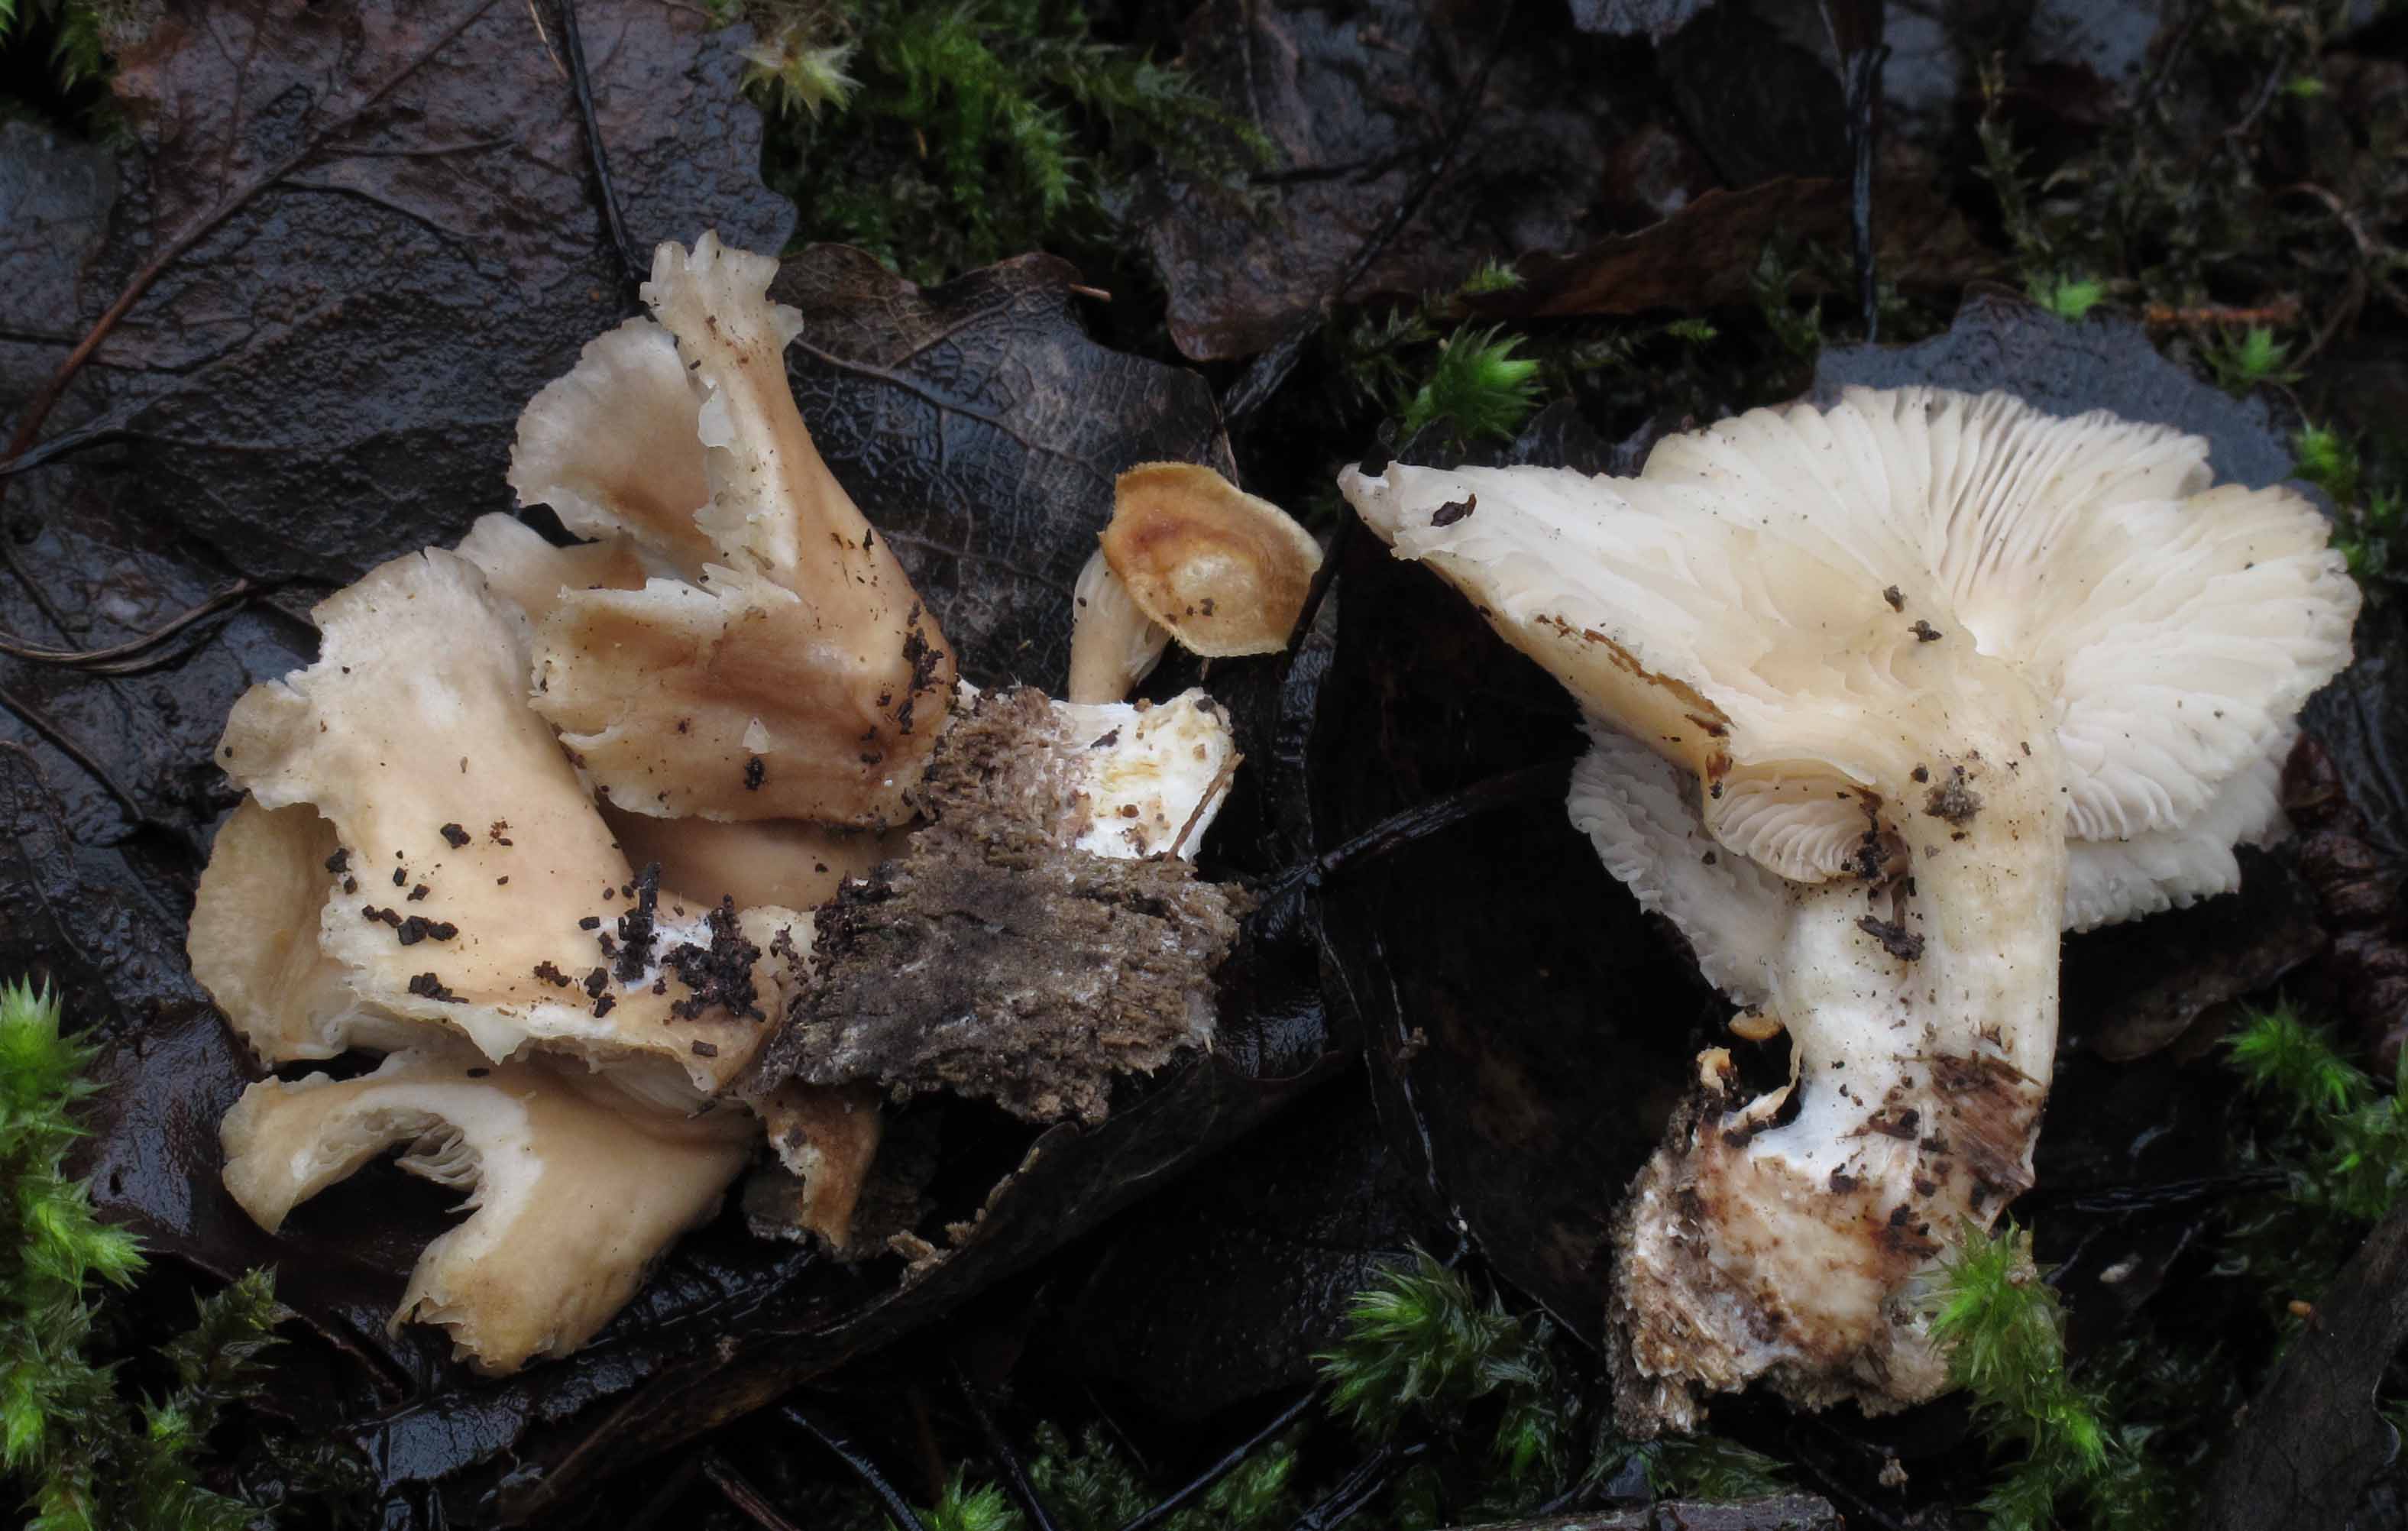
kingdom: Fungi
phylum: Basidiomycota
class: Agaricomycetes
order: Agaricales
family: Pleurotaceae
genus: Pleurotus
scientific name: Pleurotus pulmonarius
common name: sommer-østershat
